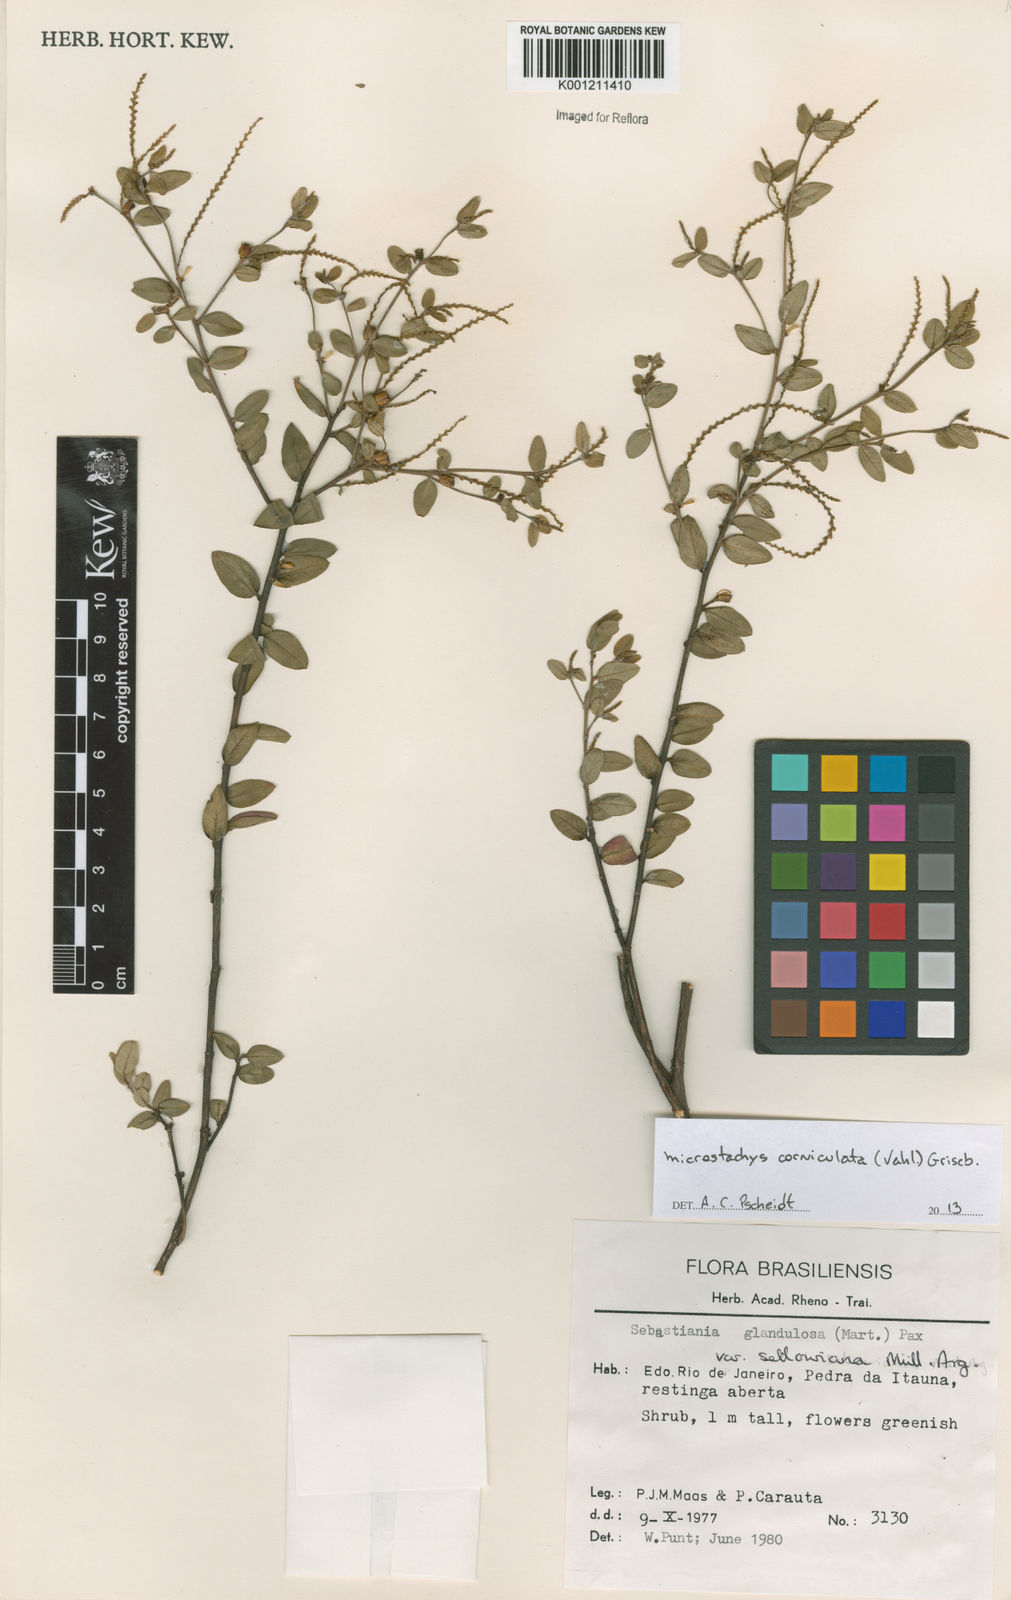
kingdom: Plantae
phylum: Tracheophyta
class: Magnoliopsida
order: Malpighiales
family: Euphorbiaceae
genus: Microstachys
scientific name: Microstachys corniculata
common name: Hato tejas
